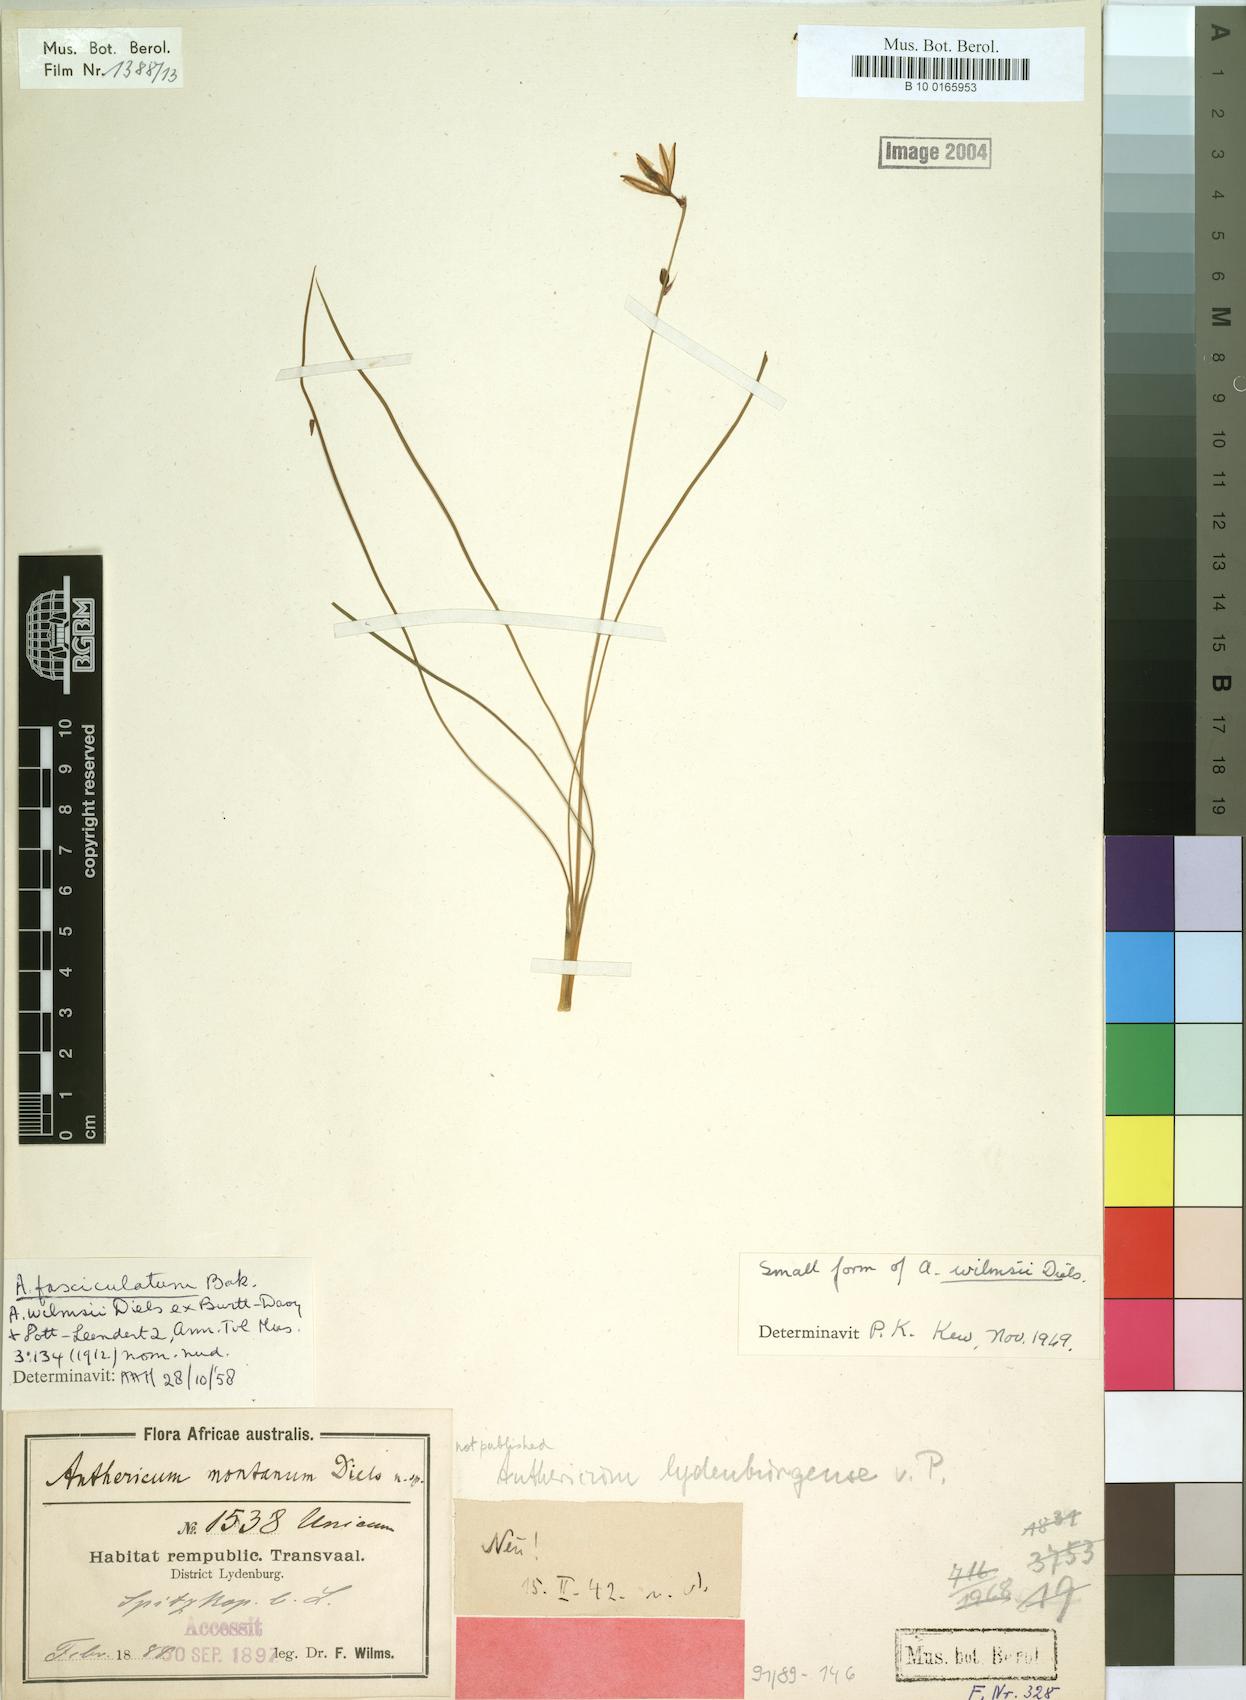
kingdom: Plantae
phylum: Tracheophyta
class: Liliopsida
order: Asparagales
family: Asparagaceae
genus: Chlorophytum
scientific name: Chlorophytum fasciculatum
